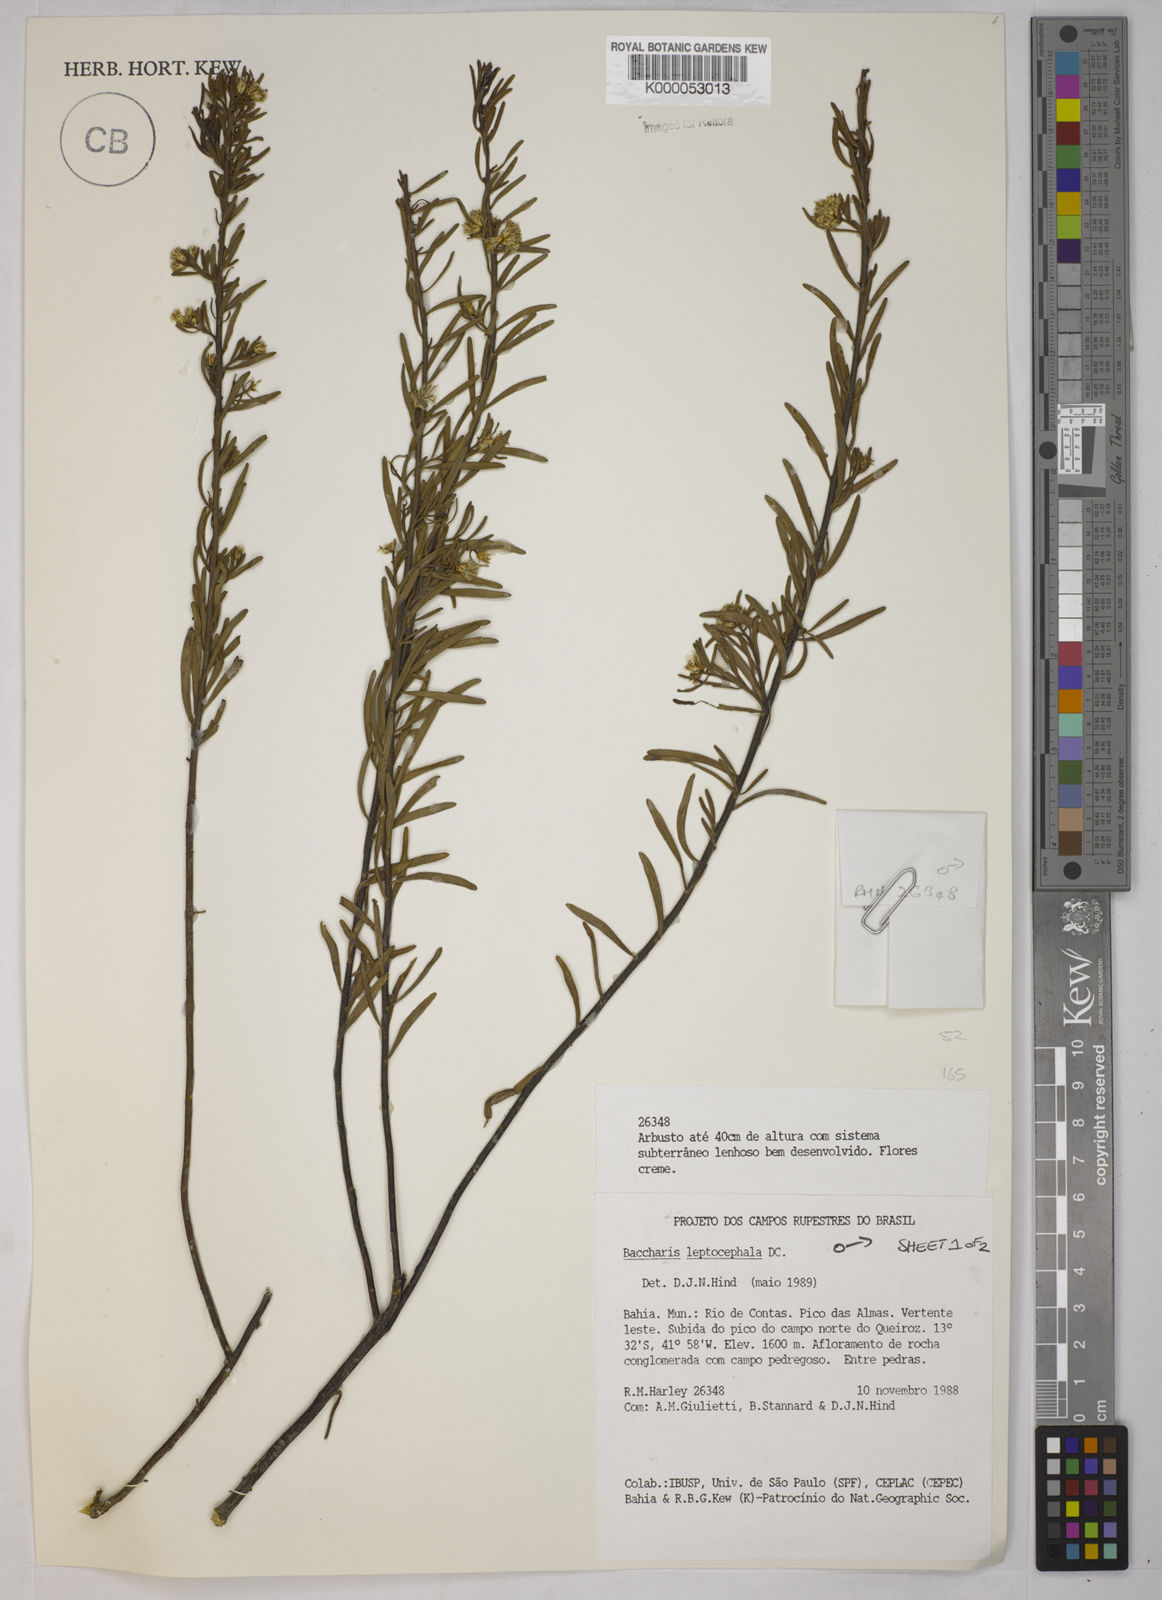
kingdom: Plantae
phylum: Tracheophyta
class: Magnoliopsida
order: Asterales
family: Asteraceae
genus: Baccharis
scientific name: Baccharis leptocephala
